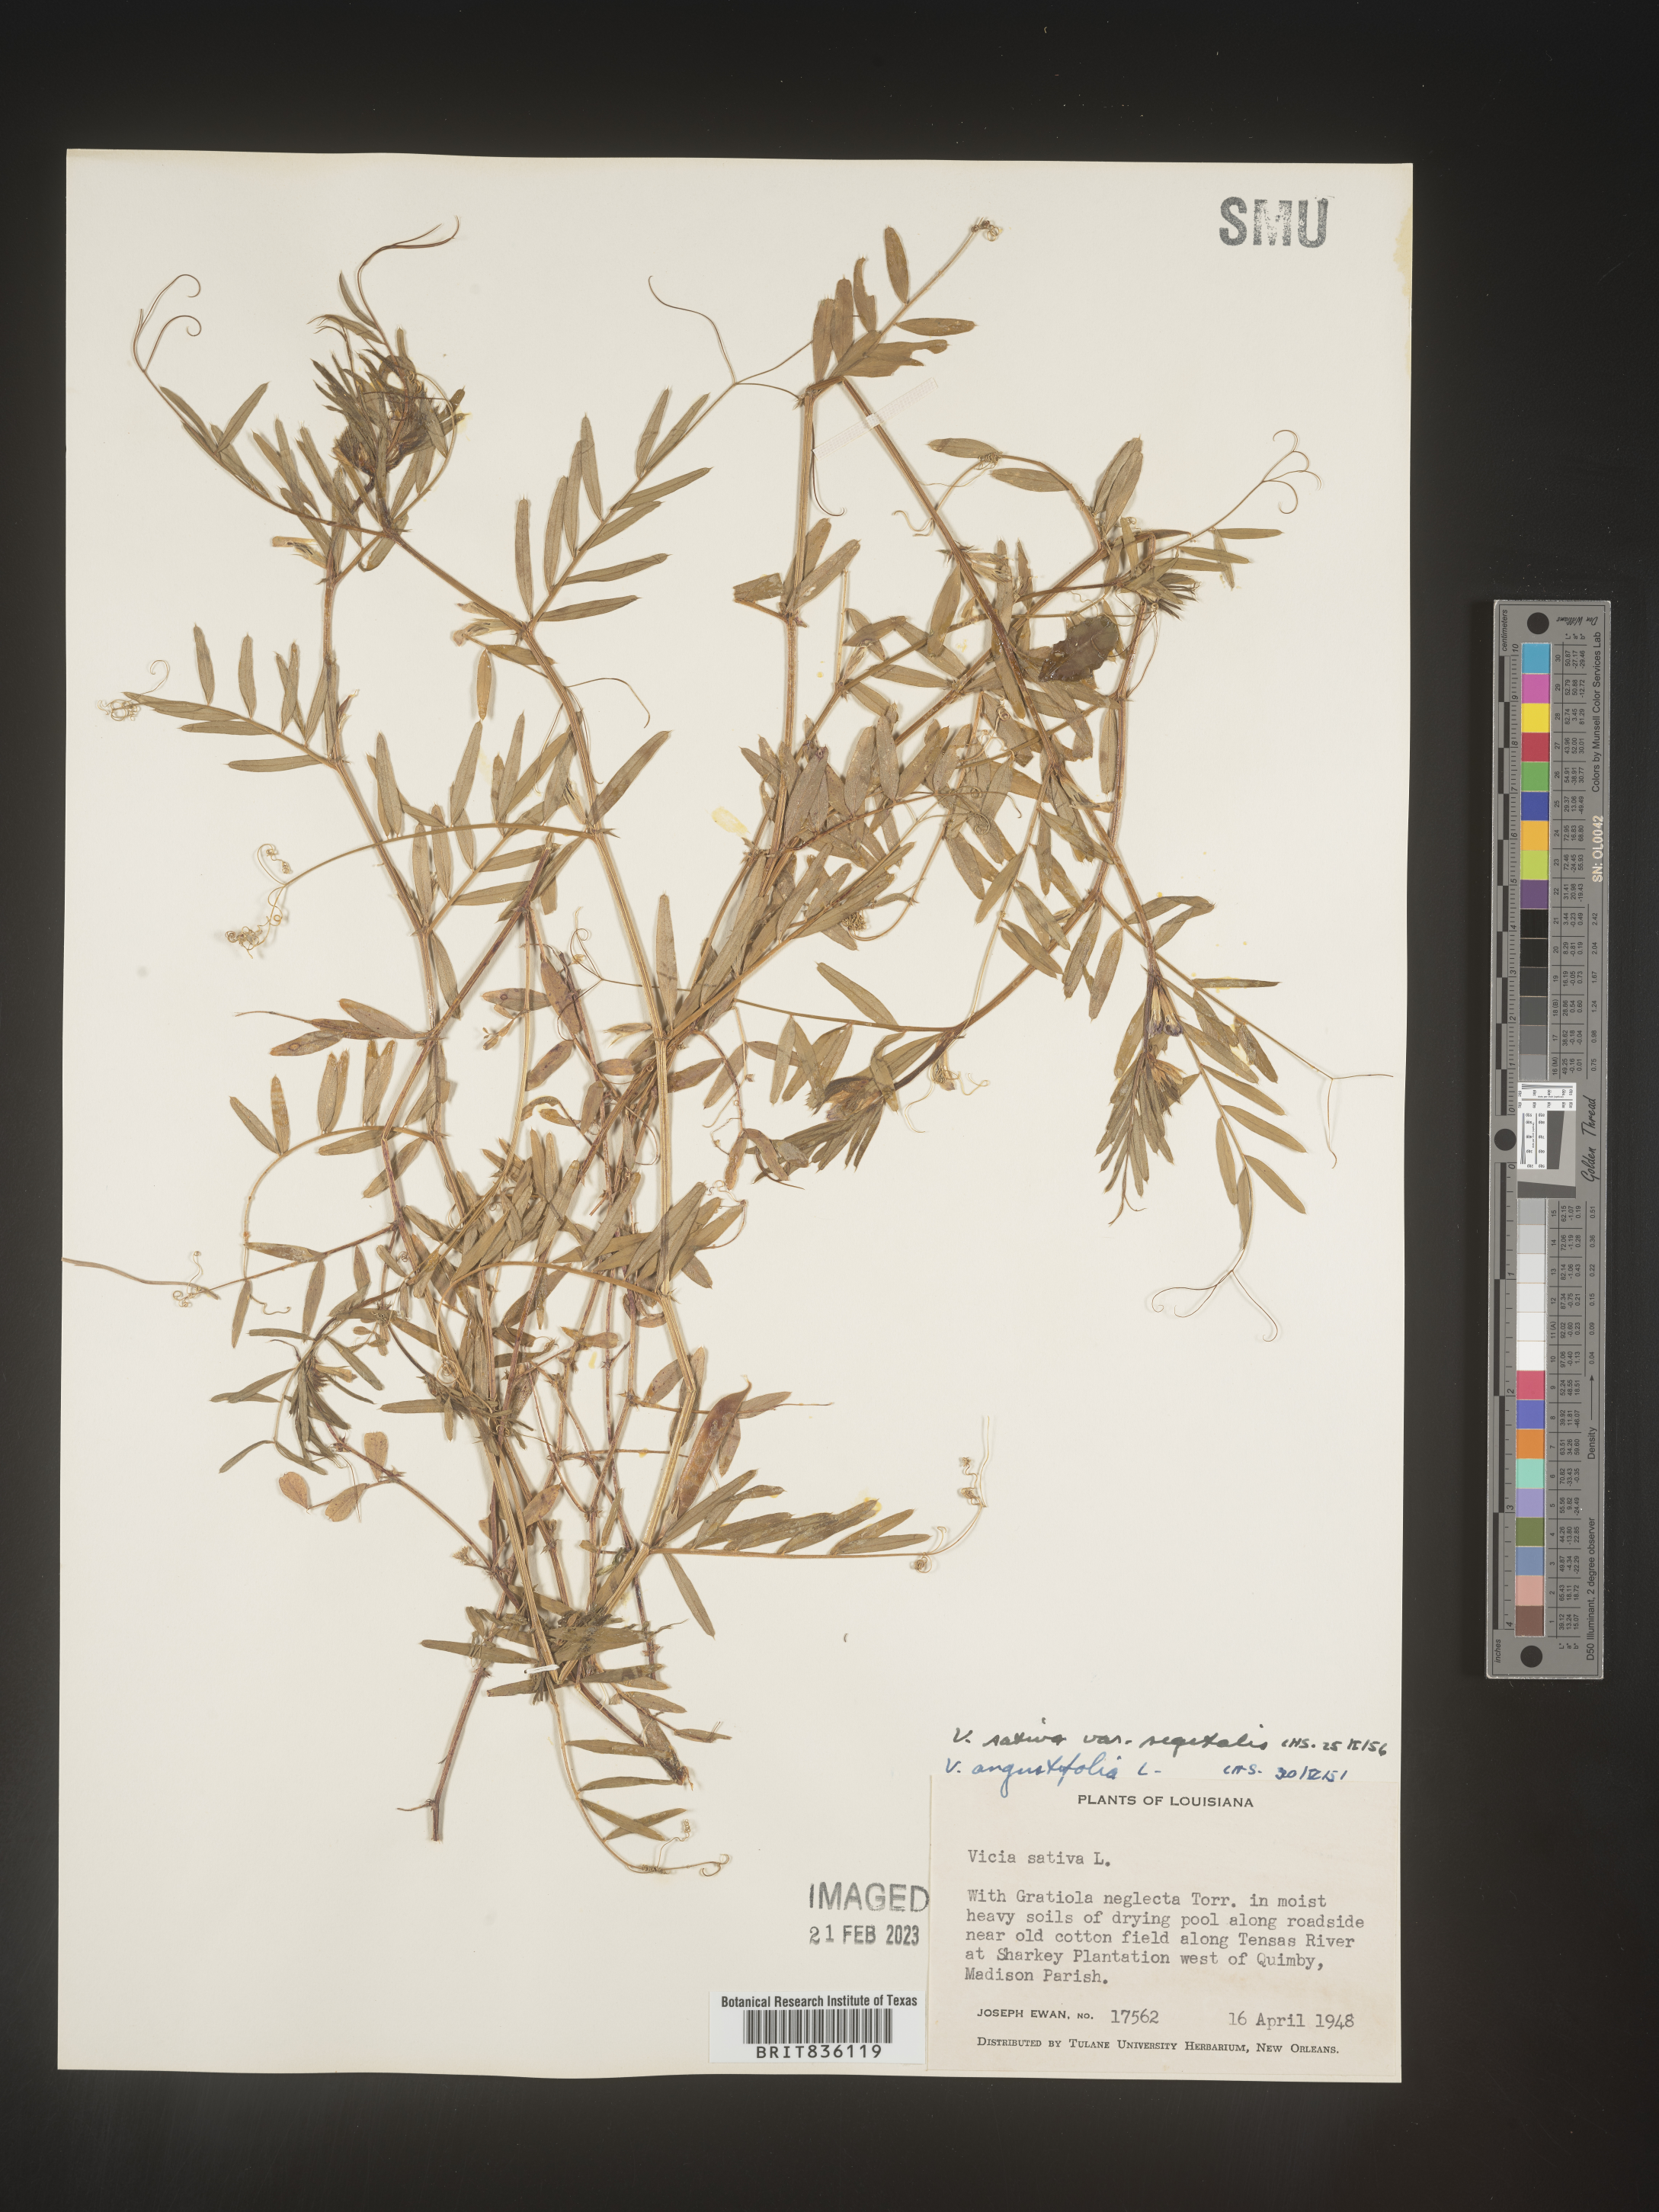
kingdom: Plantae
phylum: Tracheophyta
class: Magnoliopsida
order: Fabales
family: Fabaceae
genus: Vicia
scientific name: Vicia sativa
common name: Garden vetch
